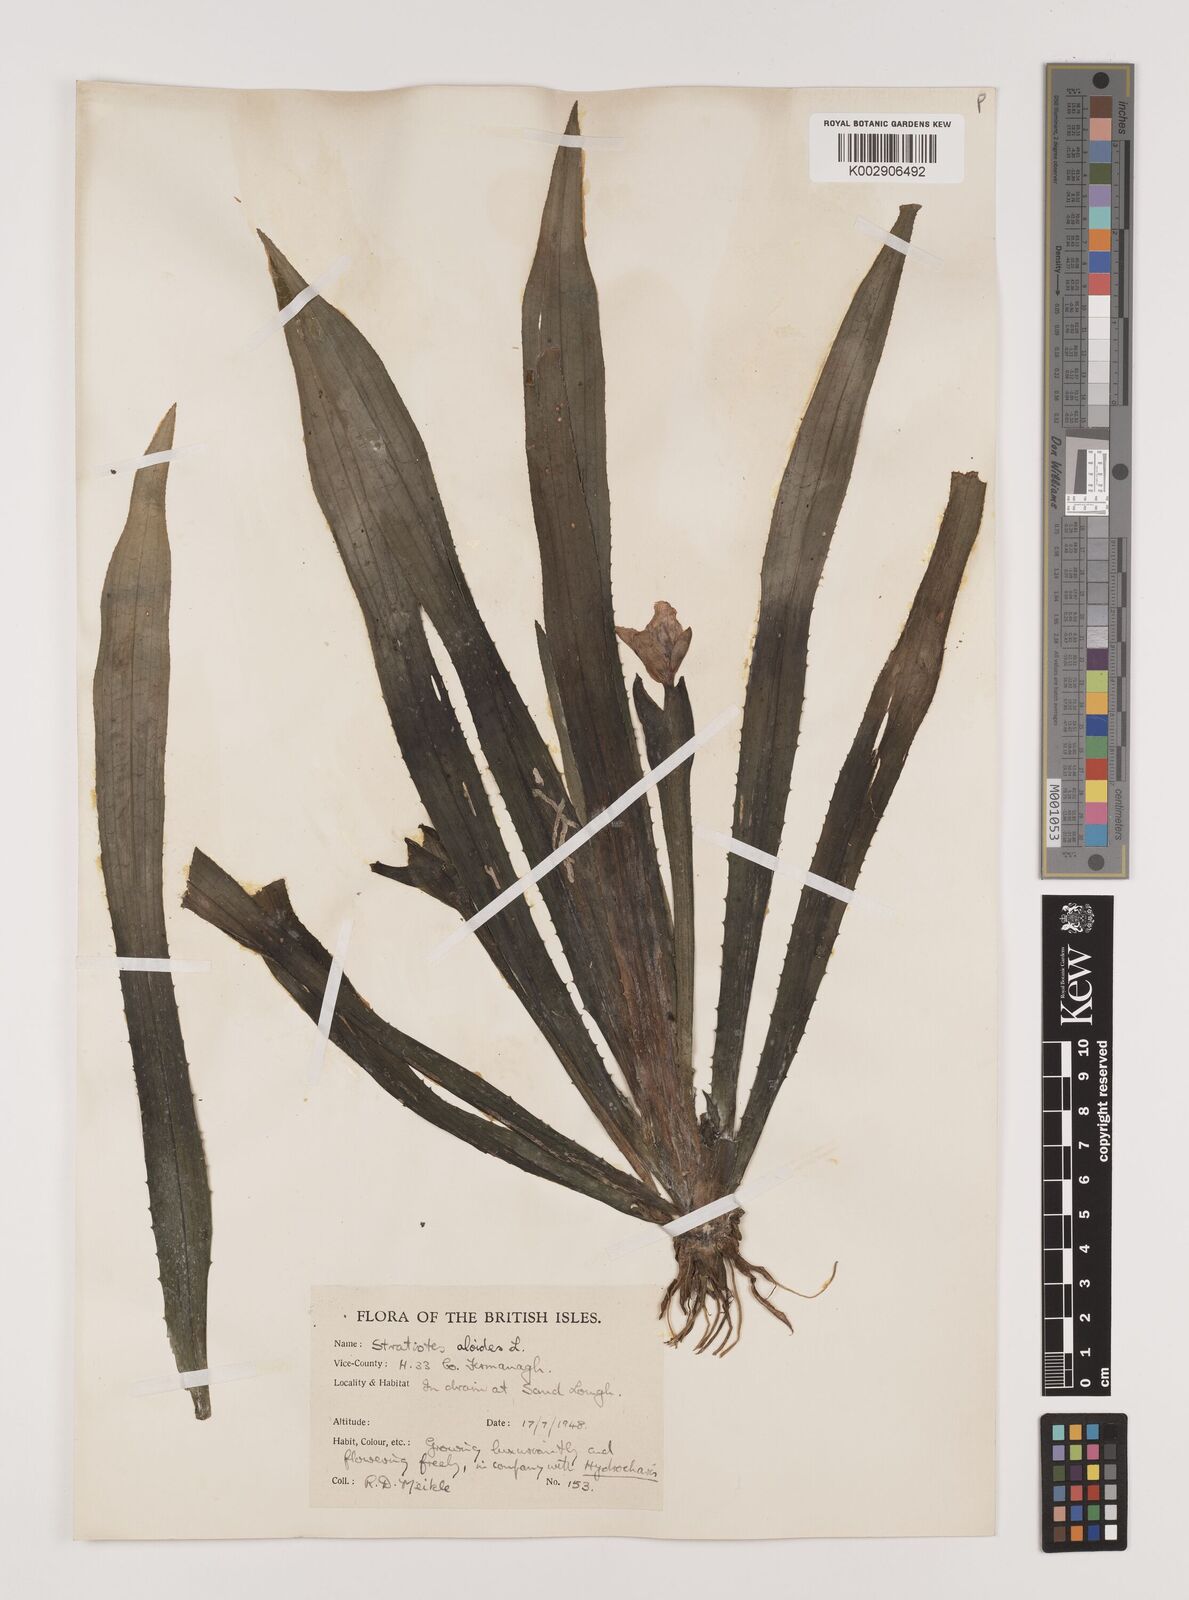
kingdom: Plantae
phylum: Tracheophyta
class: Liliopsida
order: Alismatales
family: Hydrocharitaceae
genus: Stratiotes
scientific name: Stratiotes aloides
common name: Water-soldier
